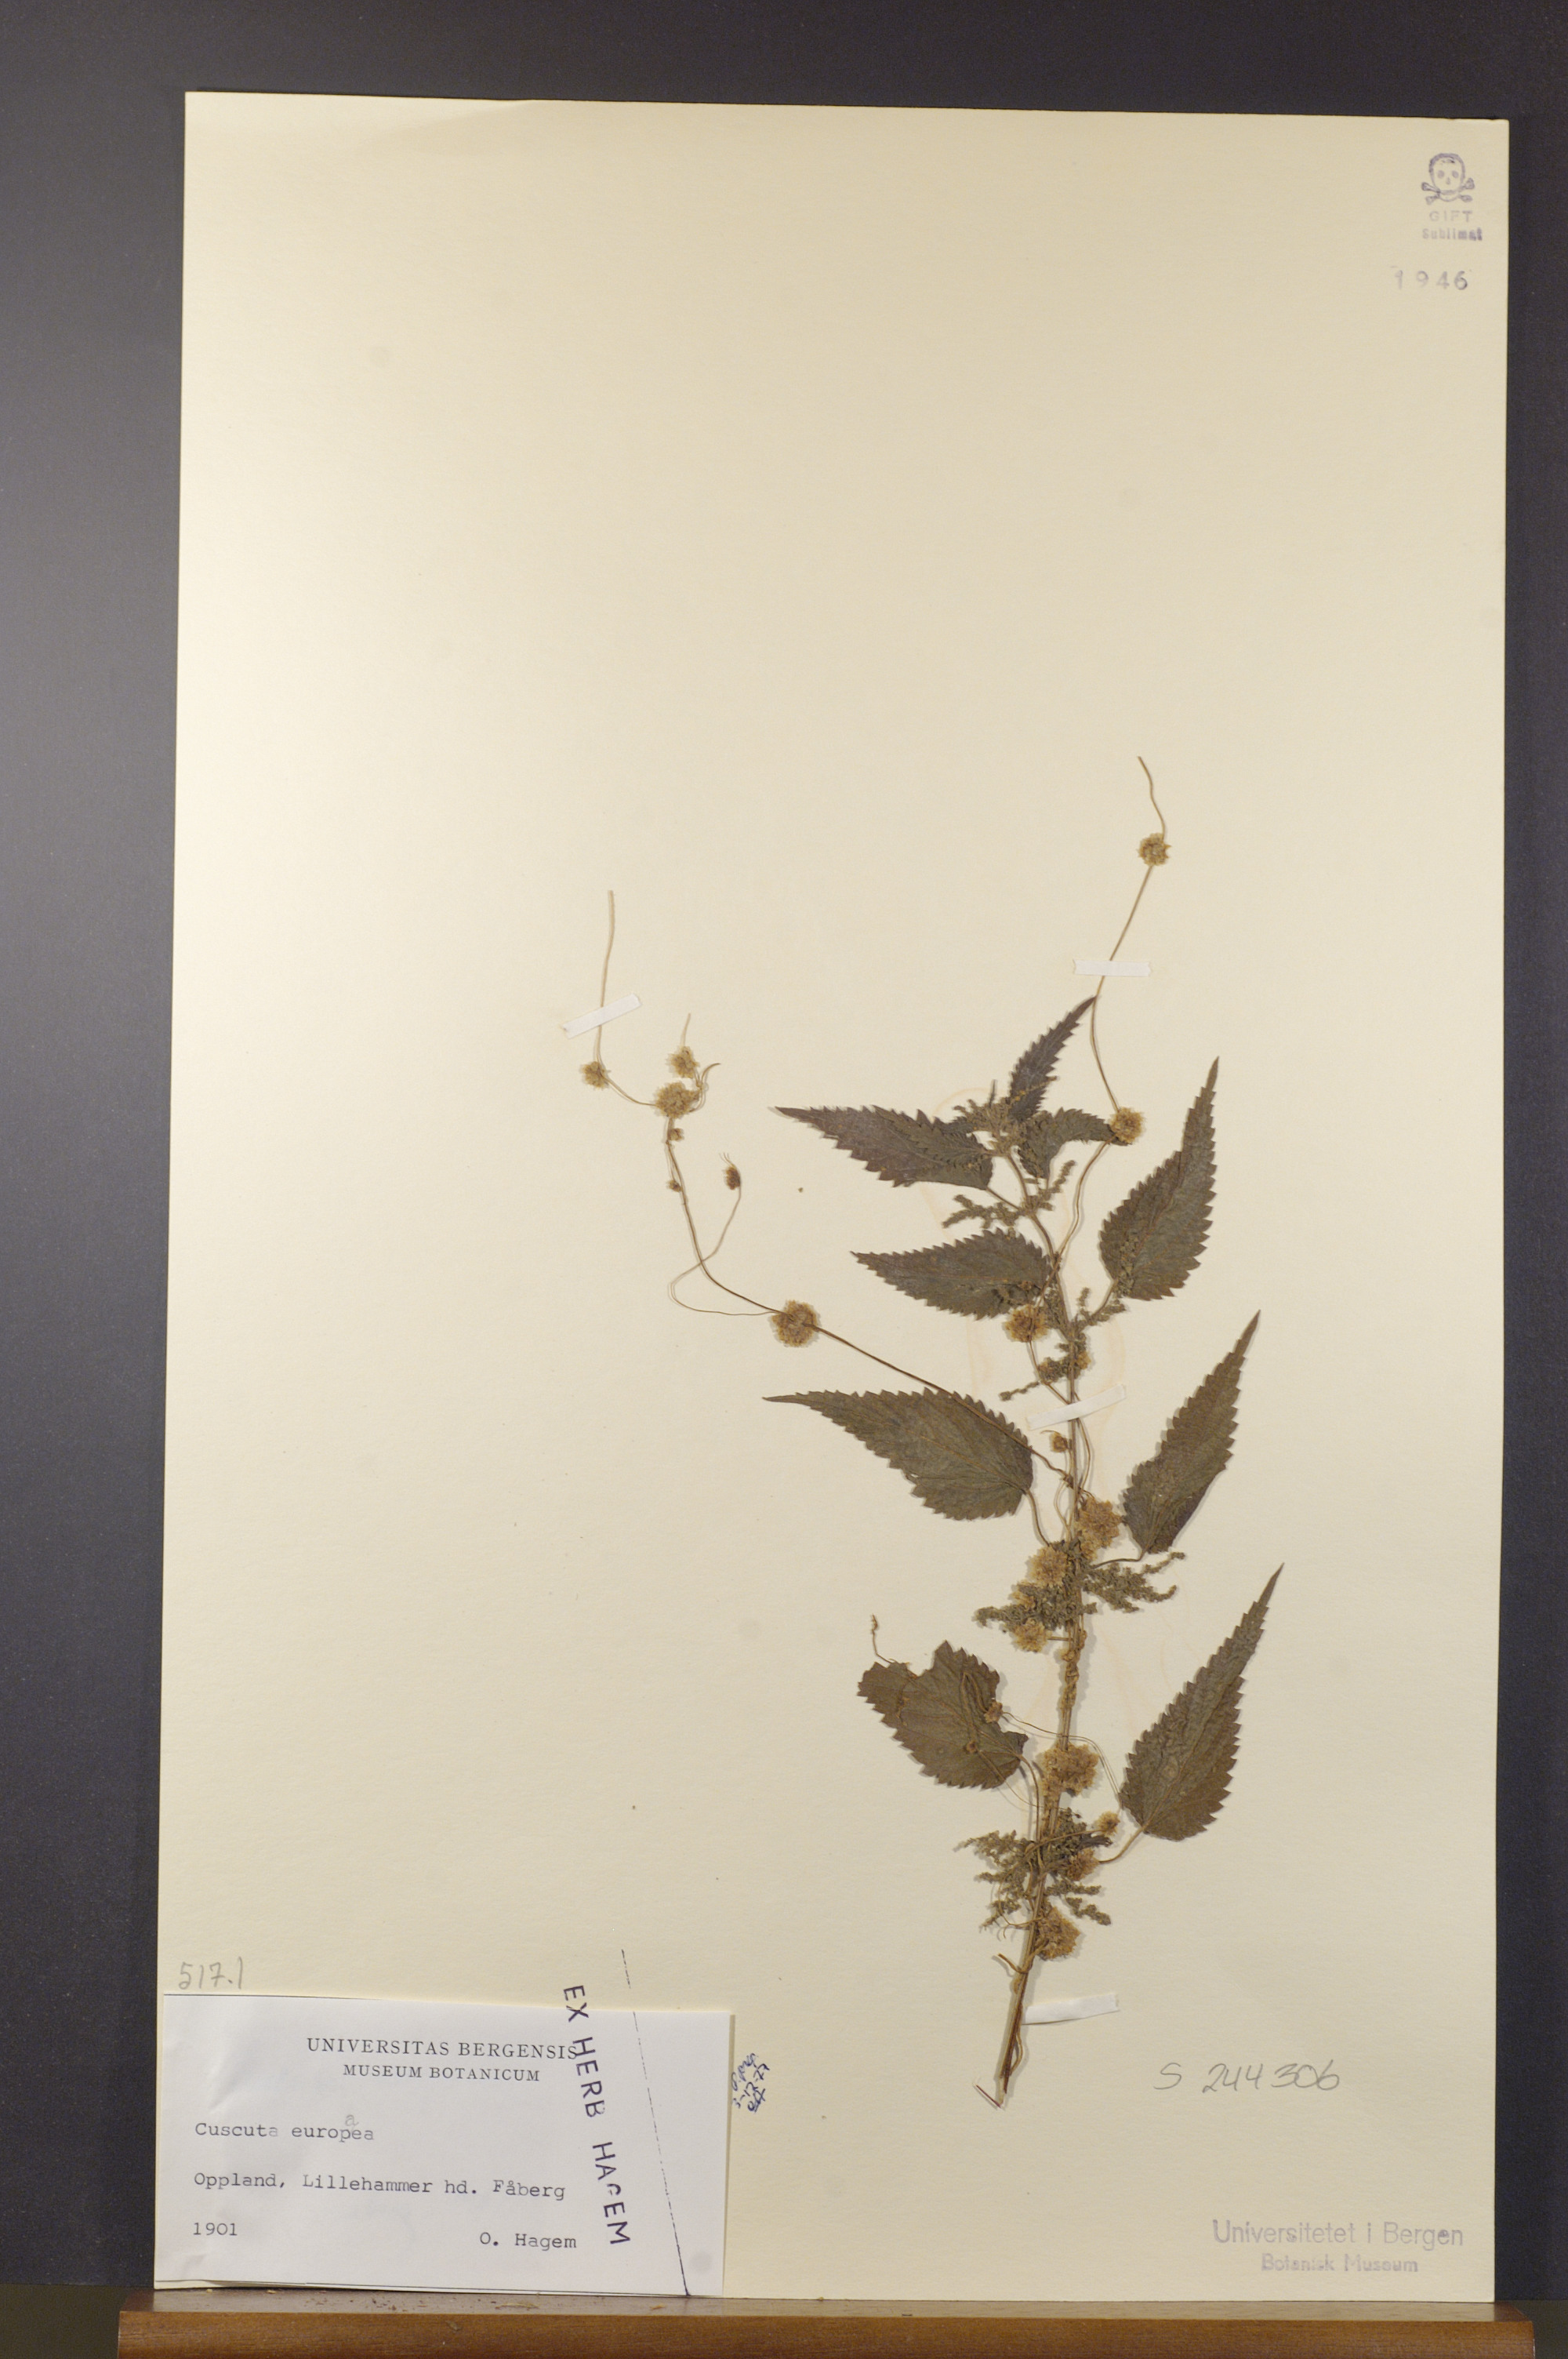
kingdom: Plantae
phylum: Tracheophyta
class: Magnoliopsida
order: Solanales
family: Convolvulaceae
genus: Cuscuta
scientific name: Cuscuta europaea
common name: Greater dodder
